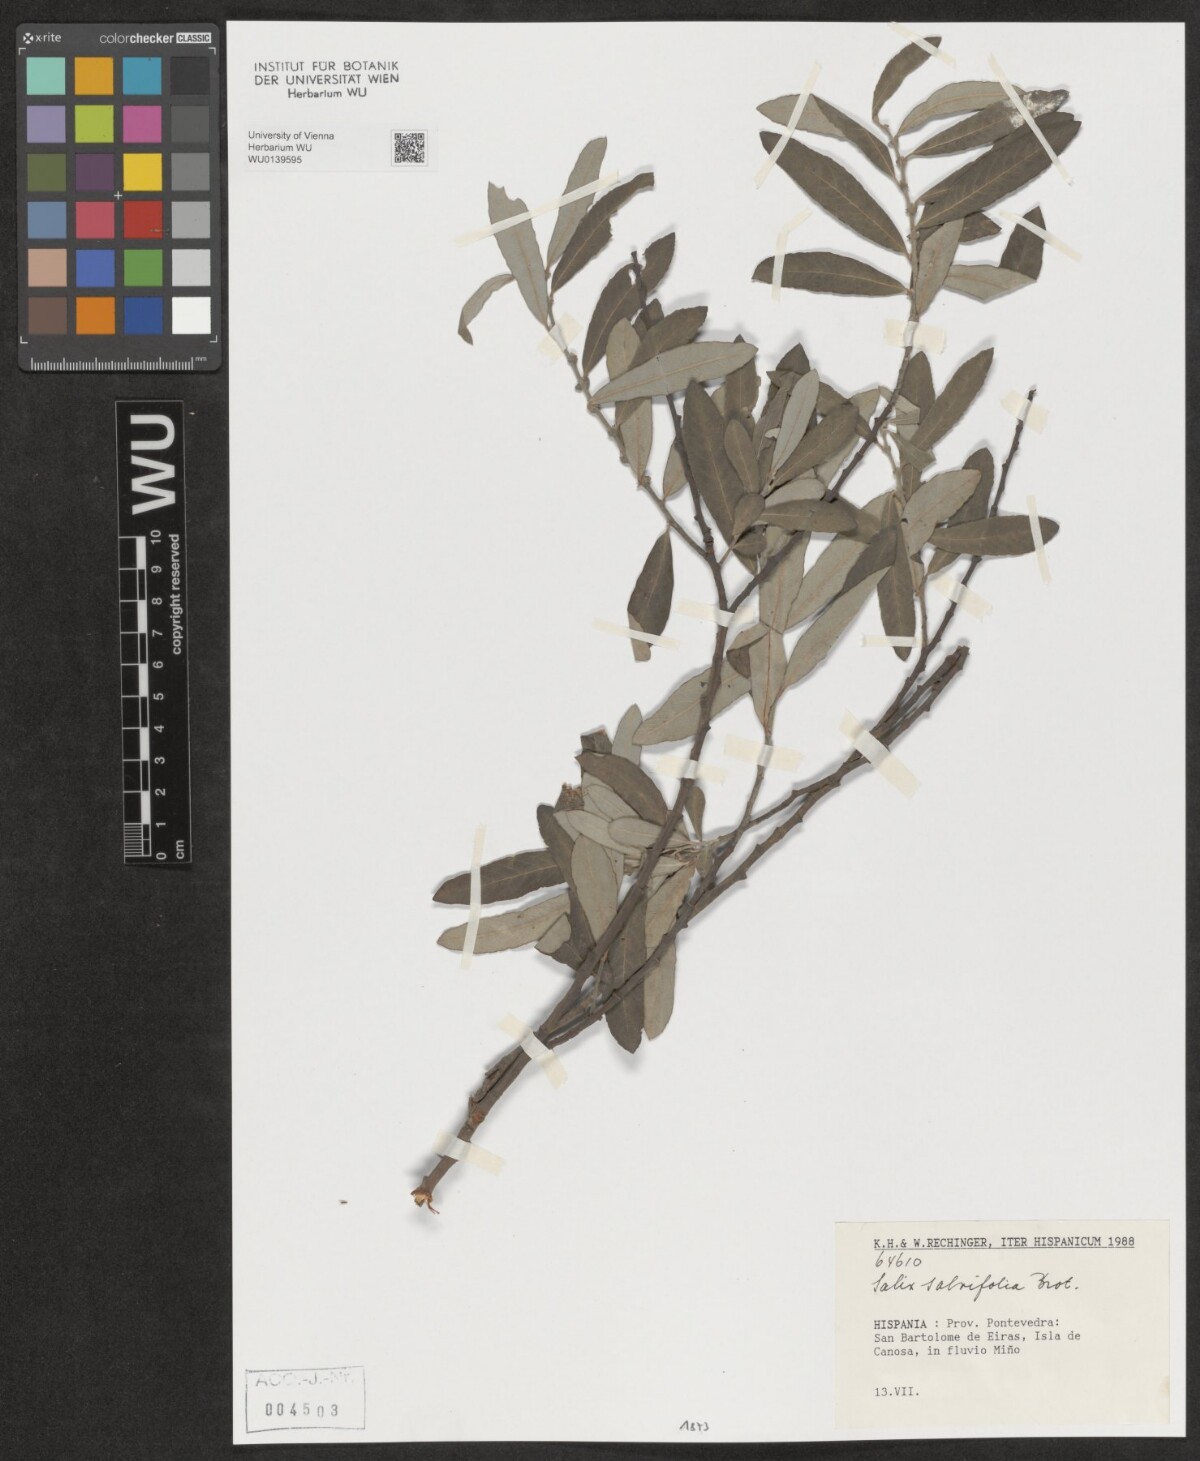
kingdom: Plantae
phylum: Tracheophyta
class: Magnoliopsida
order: Malpighiales
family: Salicaceae
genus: Salix
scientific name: Salix salviifolia
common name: Salvia-leaf willow
